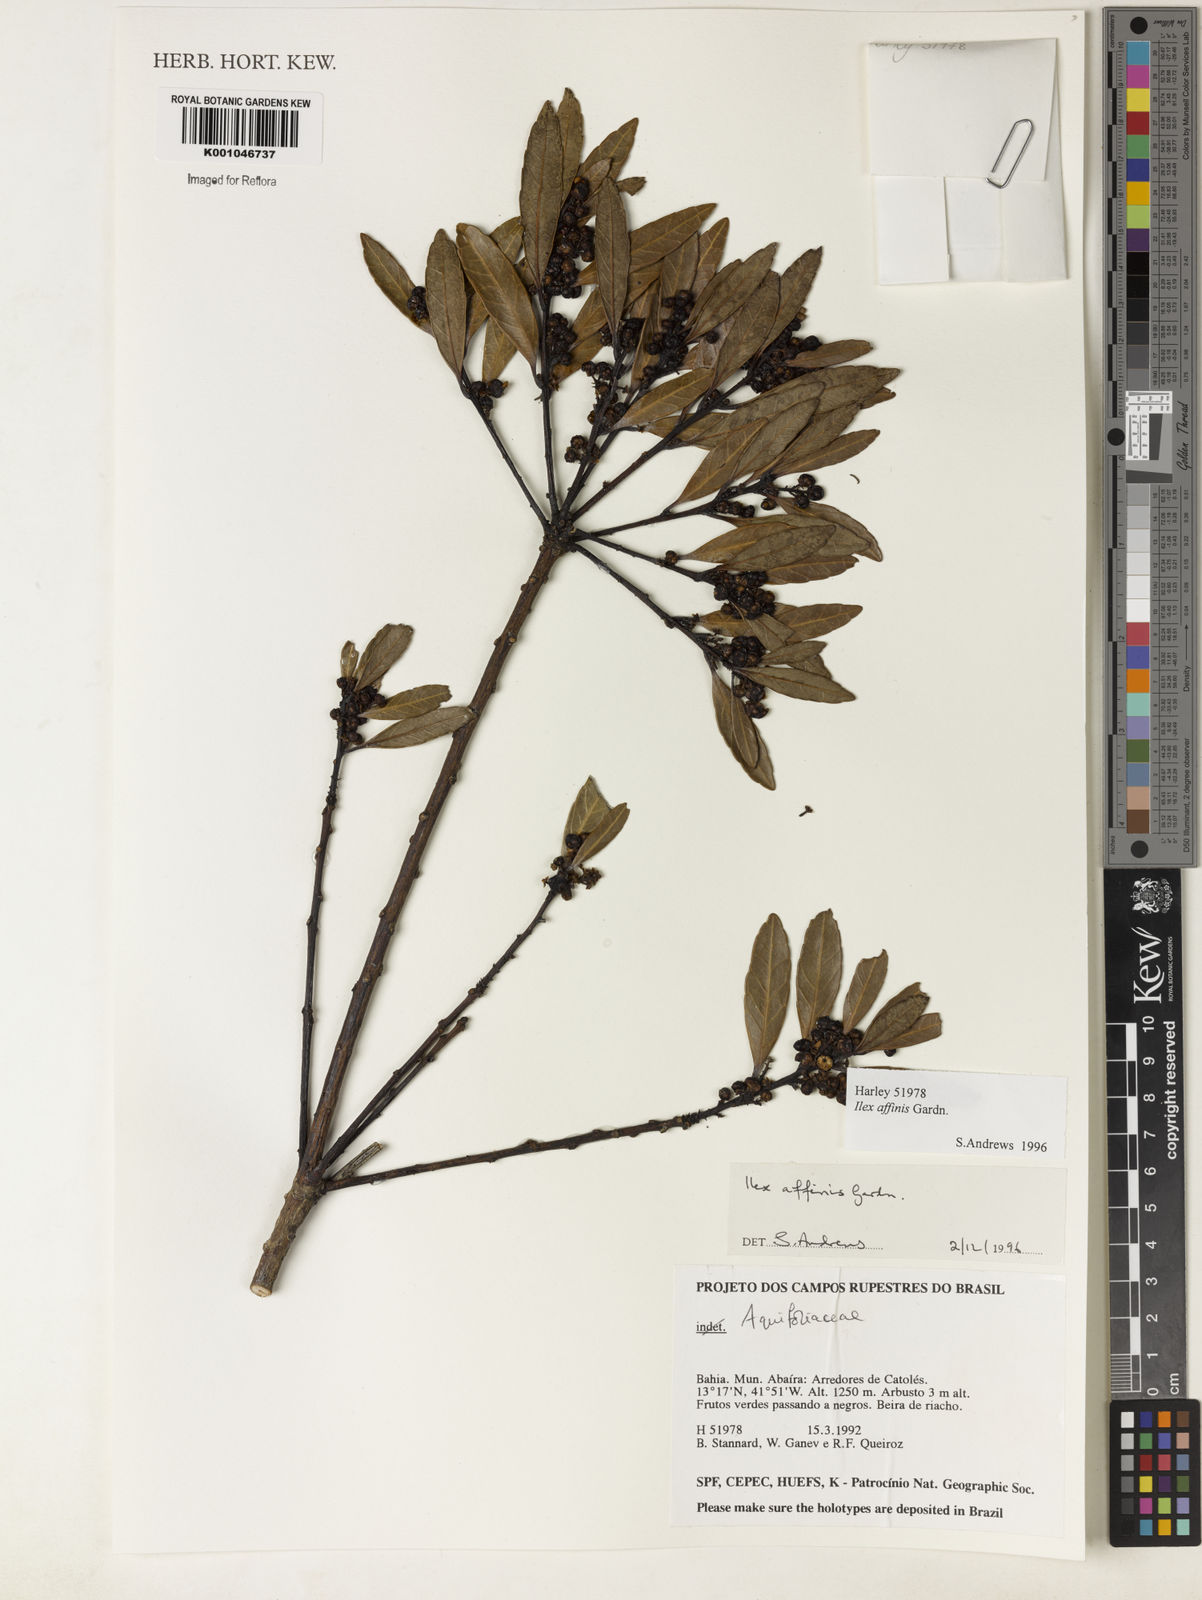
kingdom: Plantae
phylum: Tracheophyta
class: Magnoliopsida
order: Aquifoliales
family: Aquifoliaceae
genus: Ilex
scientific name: Ilex affinis
